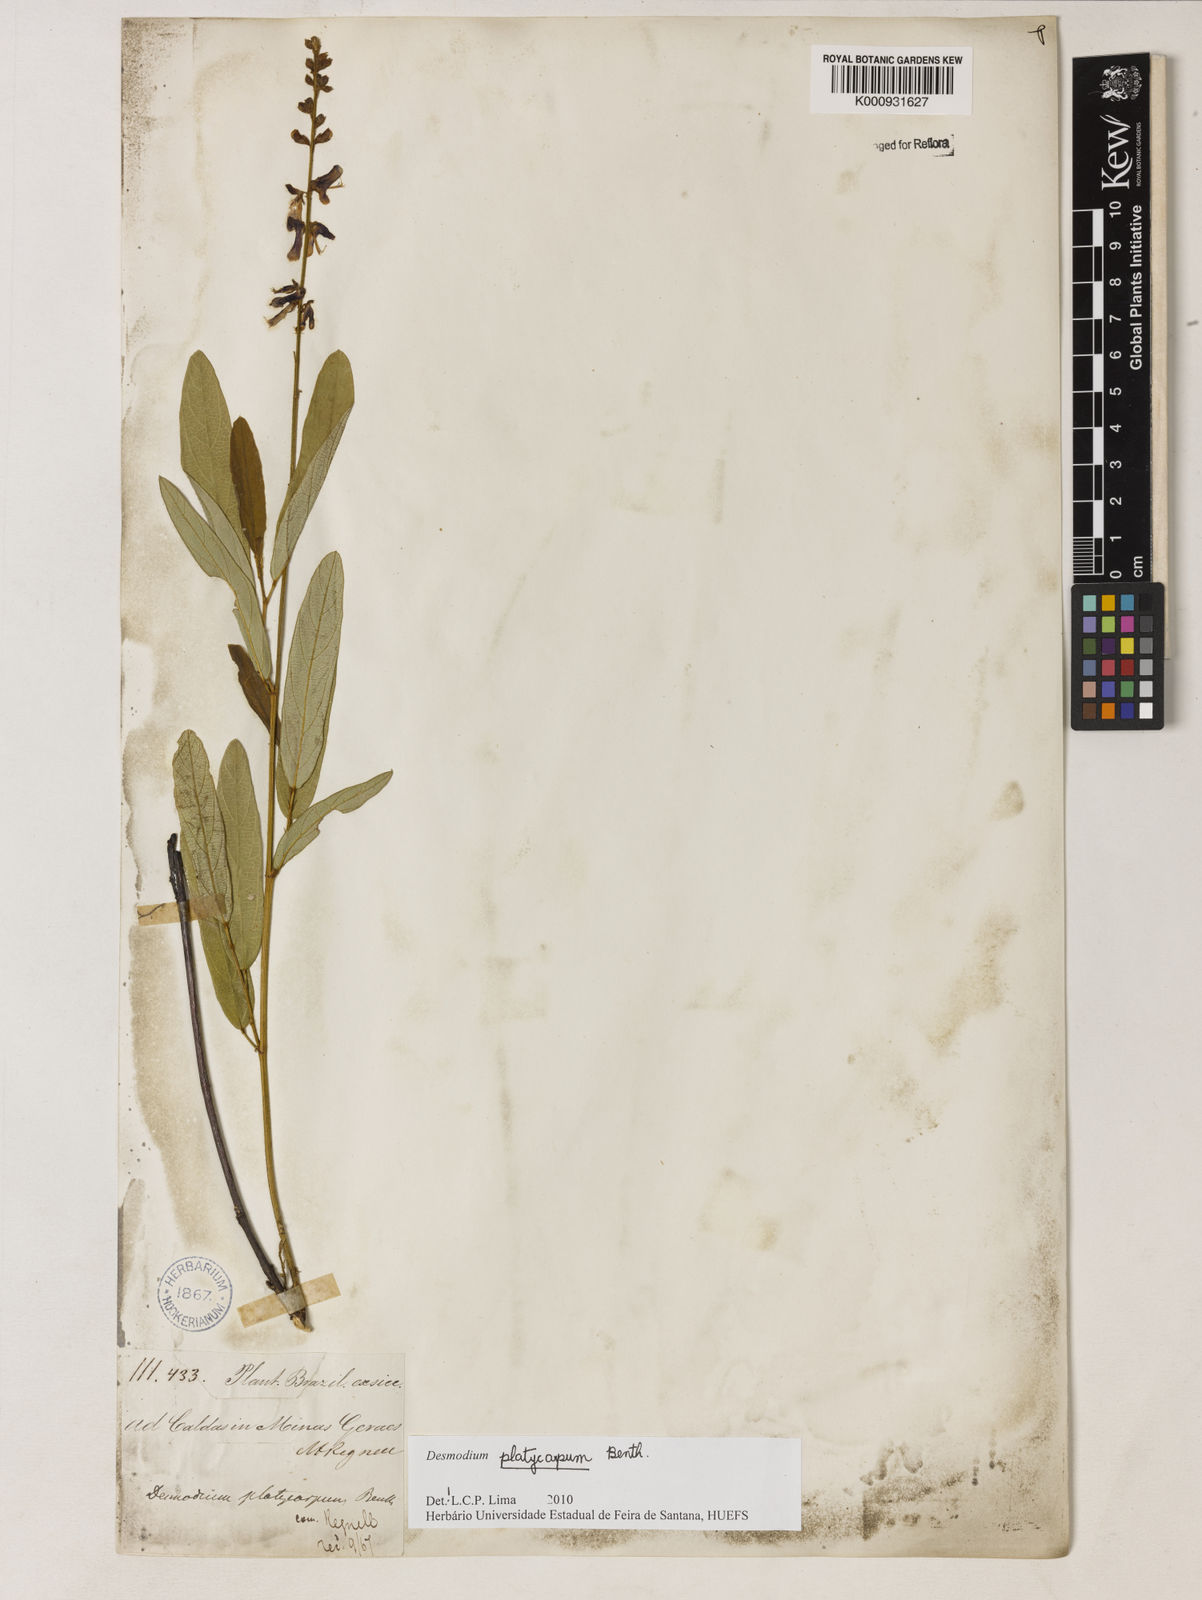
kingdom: Plantae
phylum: Tracheophyta
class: Magnoliopsida
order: Fabales
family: Fabaceae
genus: Desmodium
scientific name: Desmodium platycarpum
